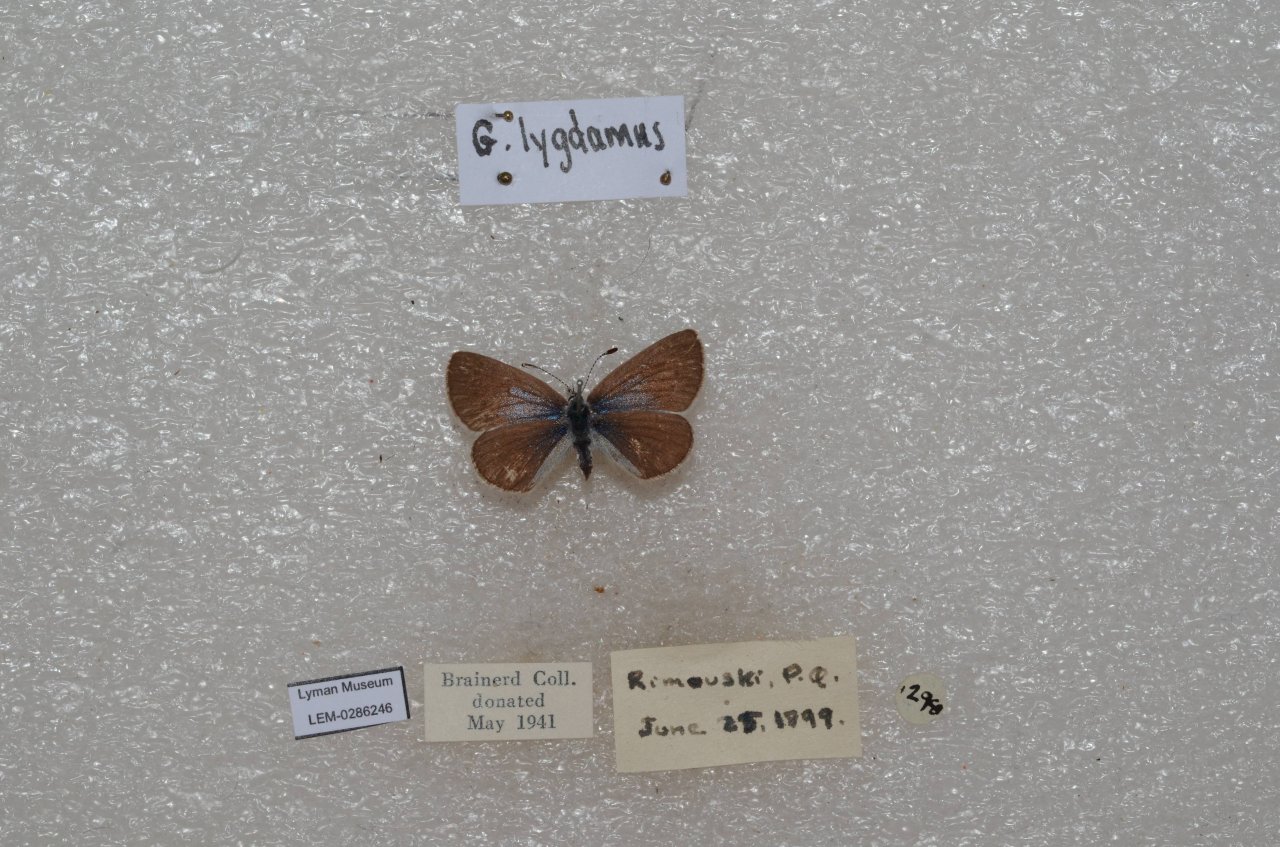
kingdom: Animalia
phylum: Arthropoda
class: Insecta
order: Lepidoptera
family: Lycaenidae
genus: Glaucopsyche
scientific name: Glaucopsyche lygdamus
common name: Silvery Blue
